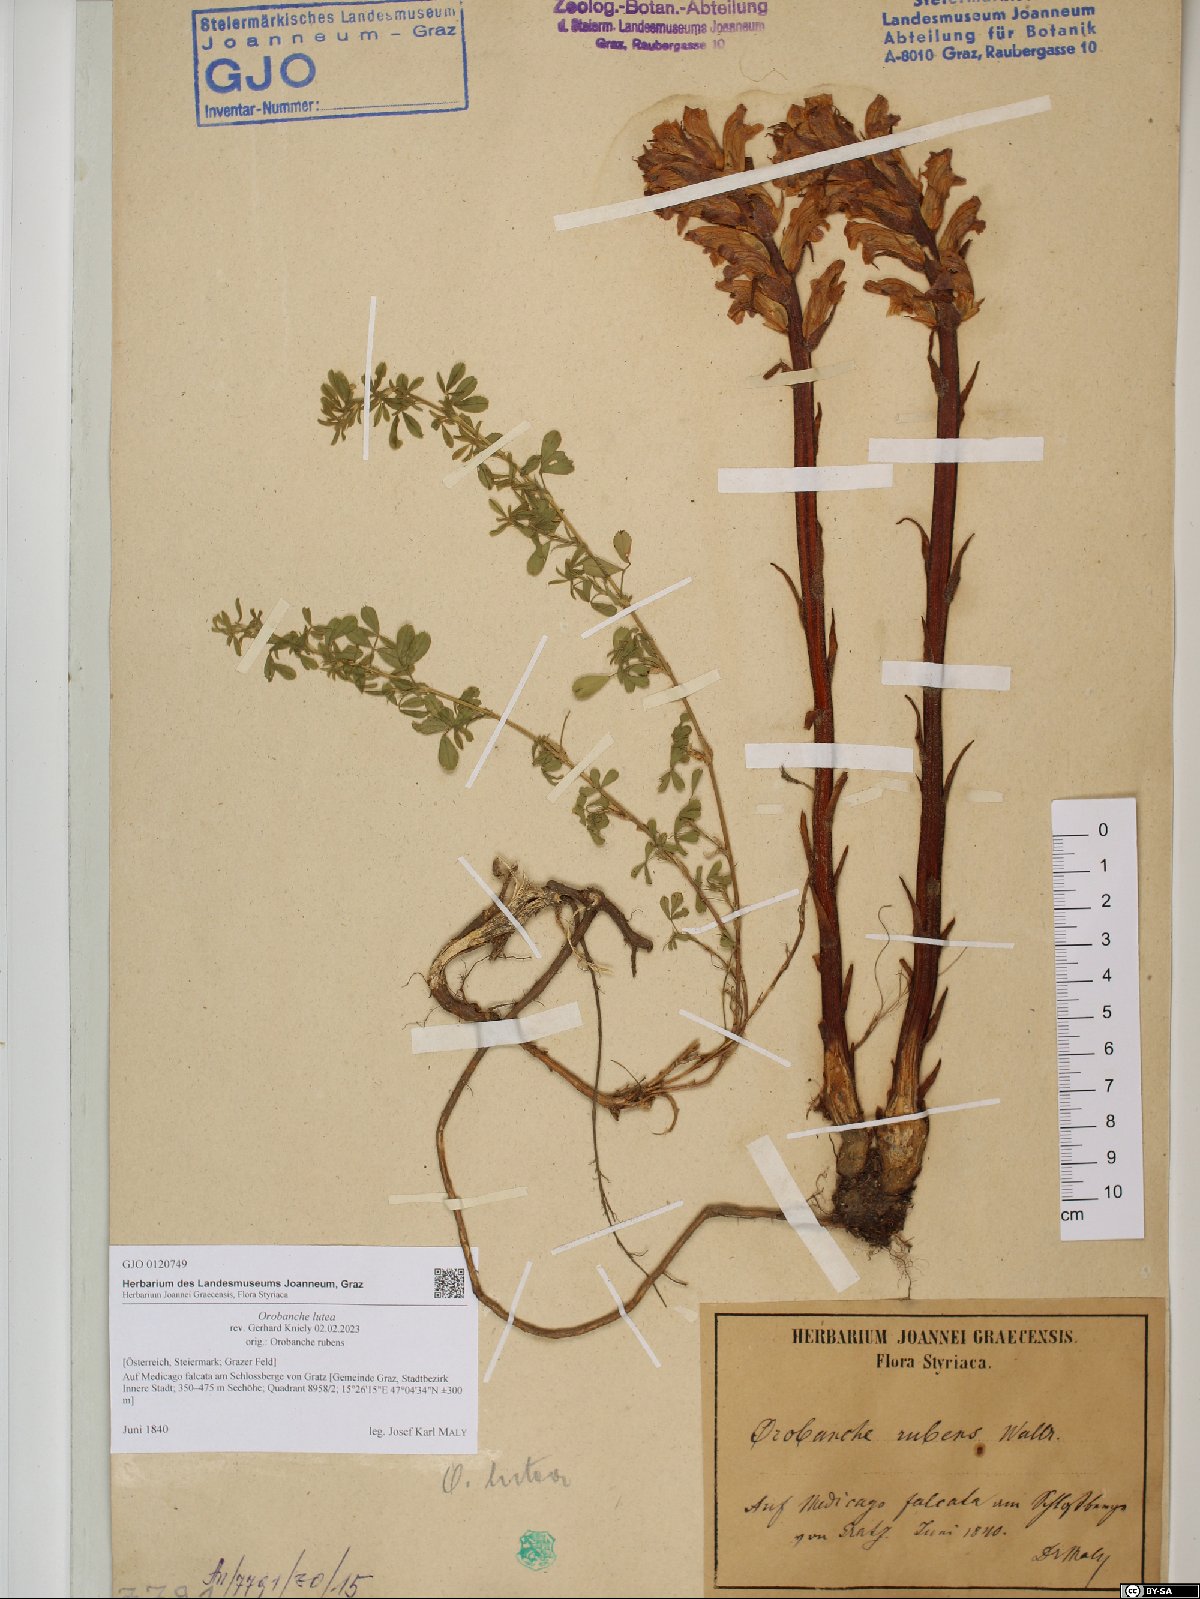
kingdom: Plantae
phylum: Tracheophyta
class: Magnoliopsida
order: Lamiales
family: Orobanchaceae
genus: Orobanche
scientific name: Orobanche lutea
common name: Yellow broomrape
